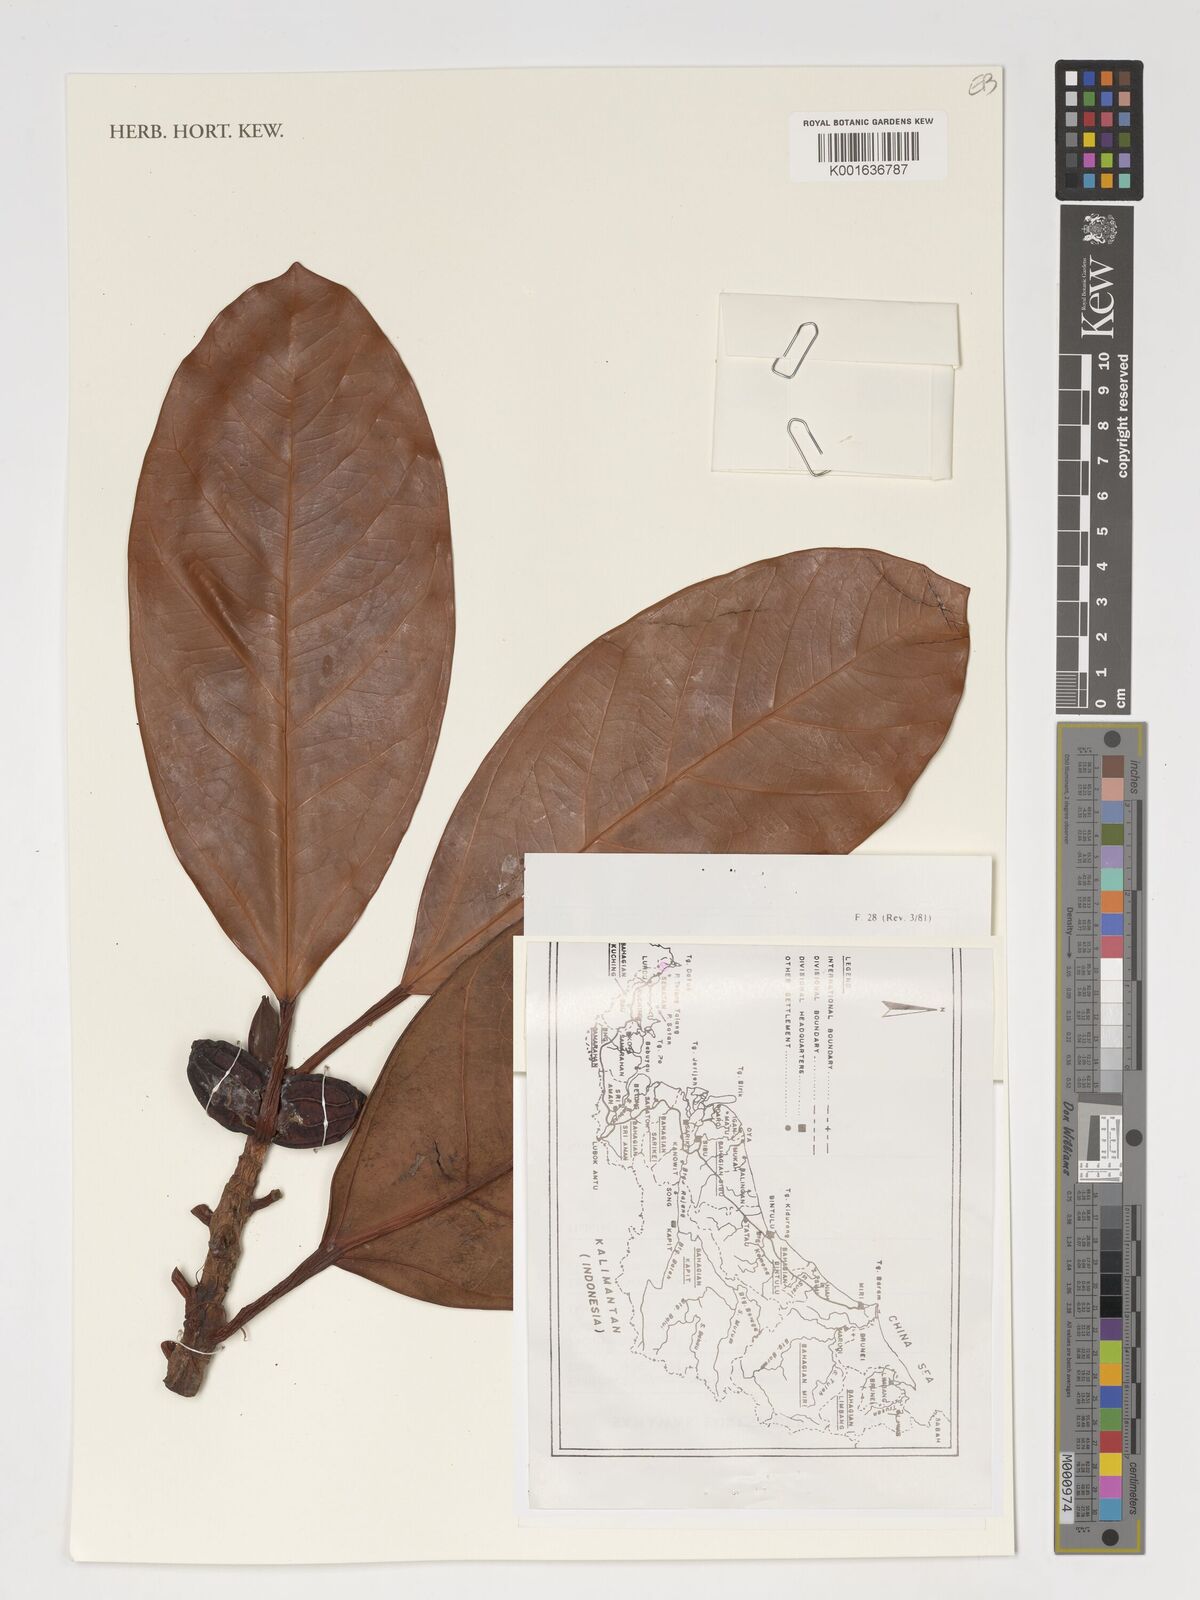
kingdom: Plantae
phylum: Tracheophyta
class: Magnoliopsida
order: Rosales
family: Moraceae
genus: Ficus
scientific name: Ficus
